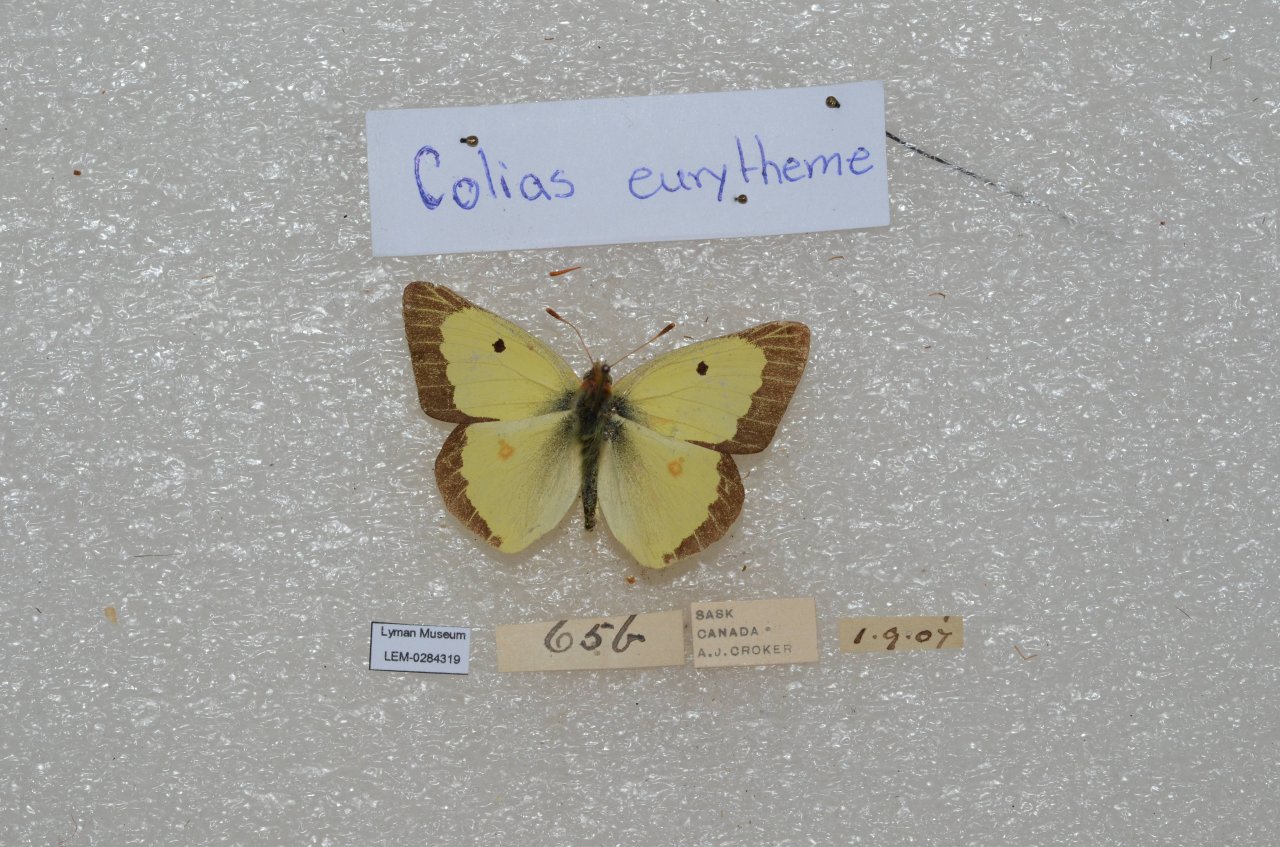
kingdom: Animalia
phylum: Arthropoda
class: Insecta
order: Lepidoptera
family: Pieridae
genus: Colias
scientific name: Colias philodice
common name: Clouded Sulphur
